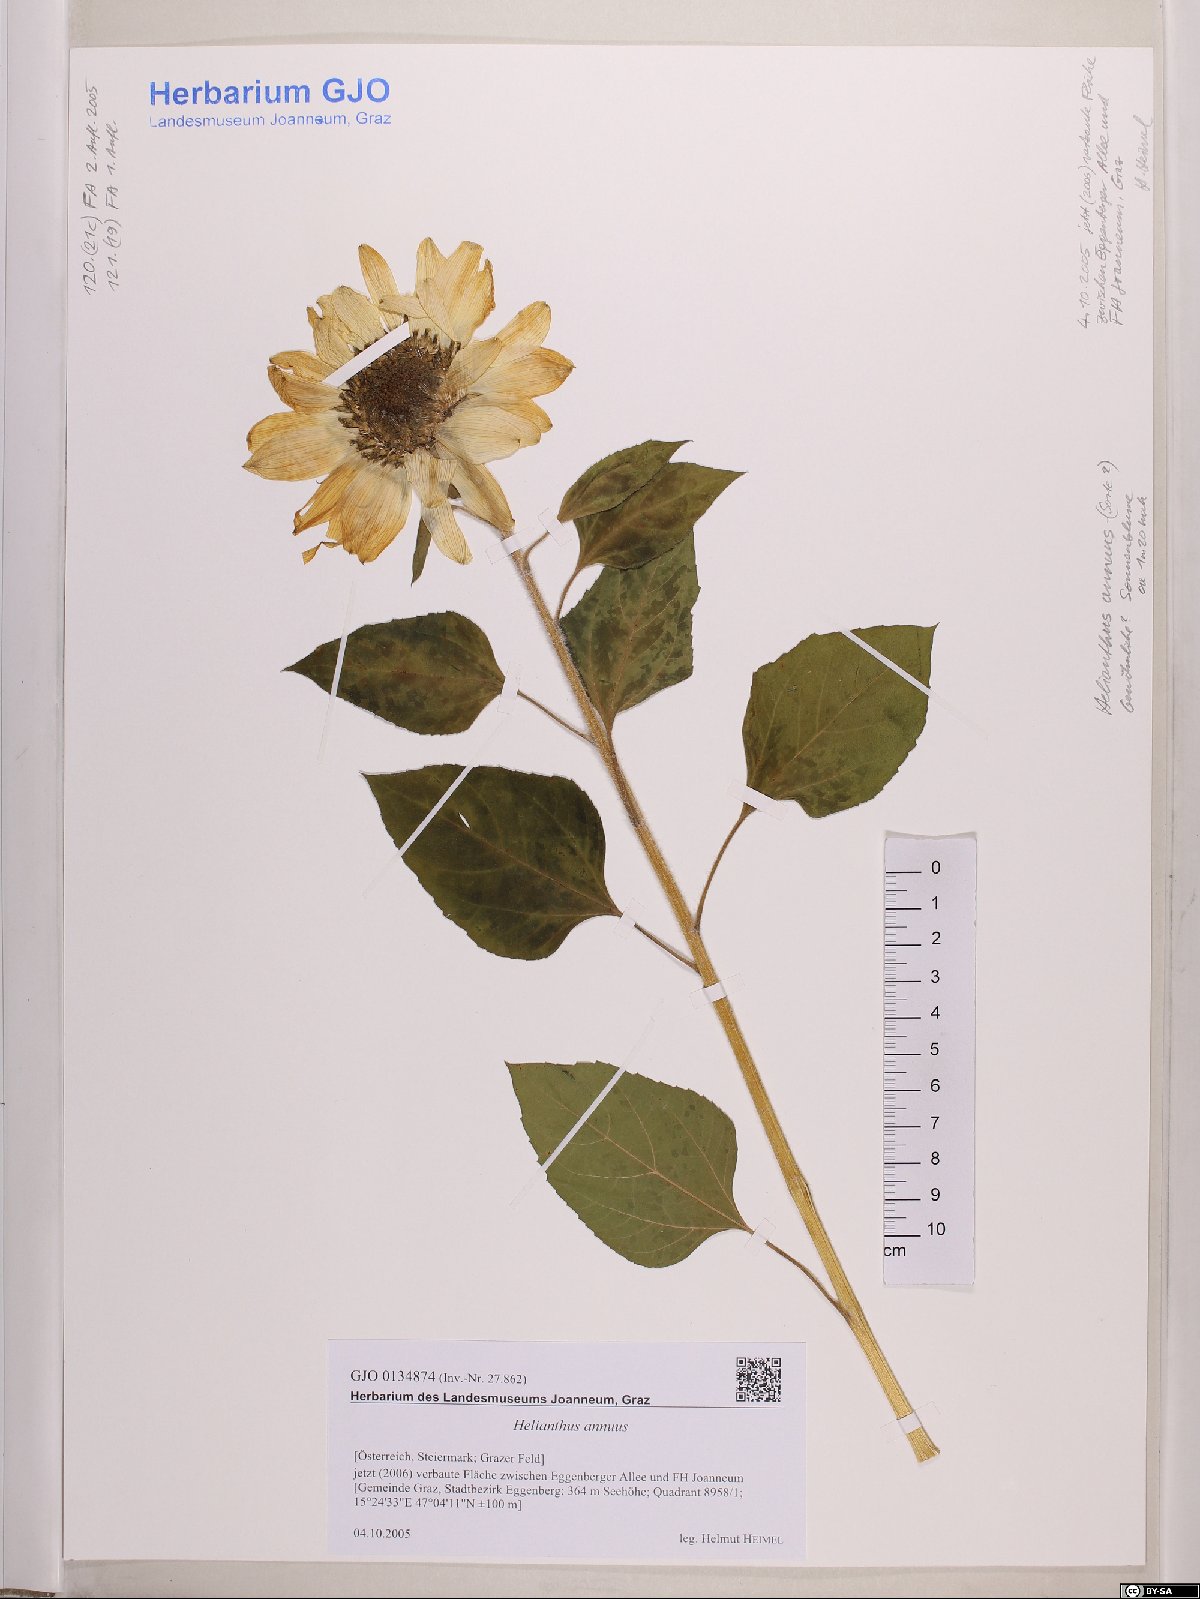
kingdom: Plantae
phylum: Tracheophyta
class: Magnoliopsida
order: Asterales
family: Asteraceae
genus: Helianthus
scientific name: Helianthus annuus
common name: Sunflower
